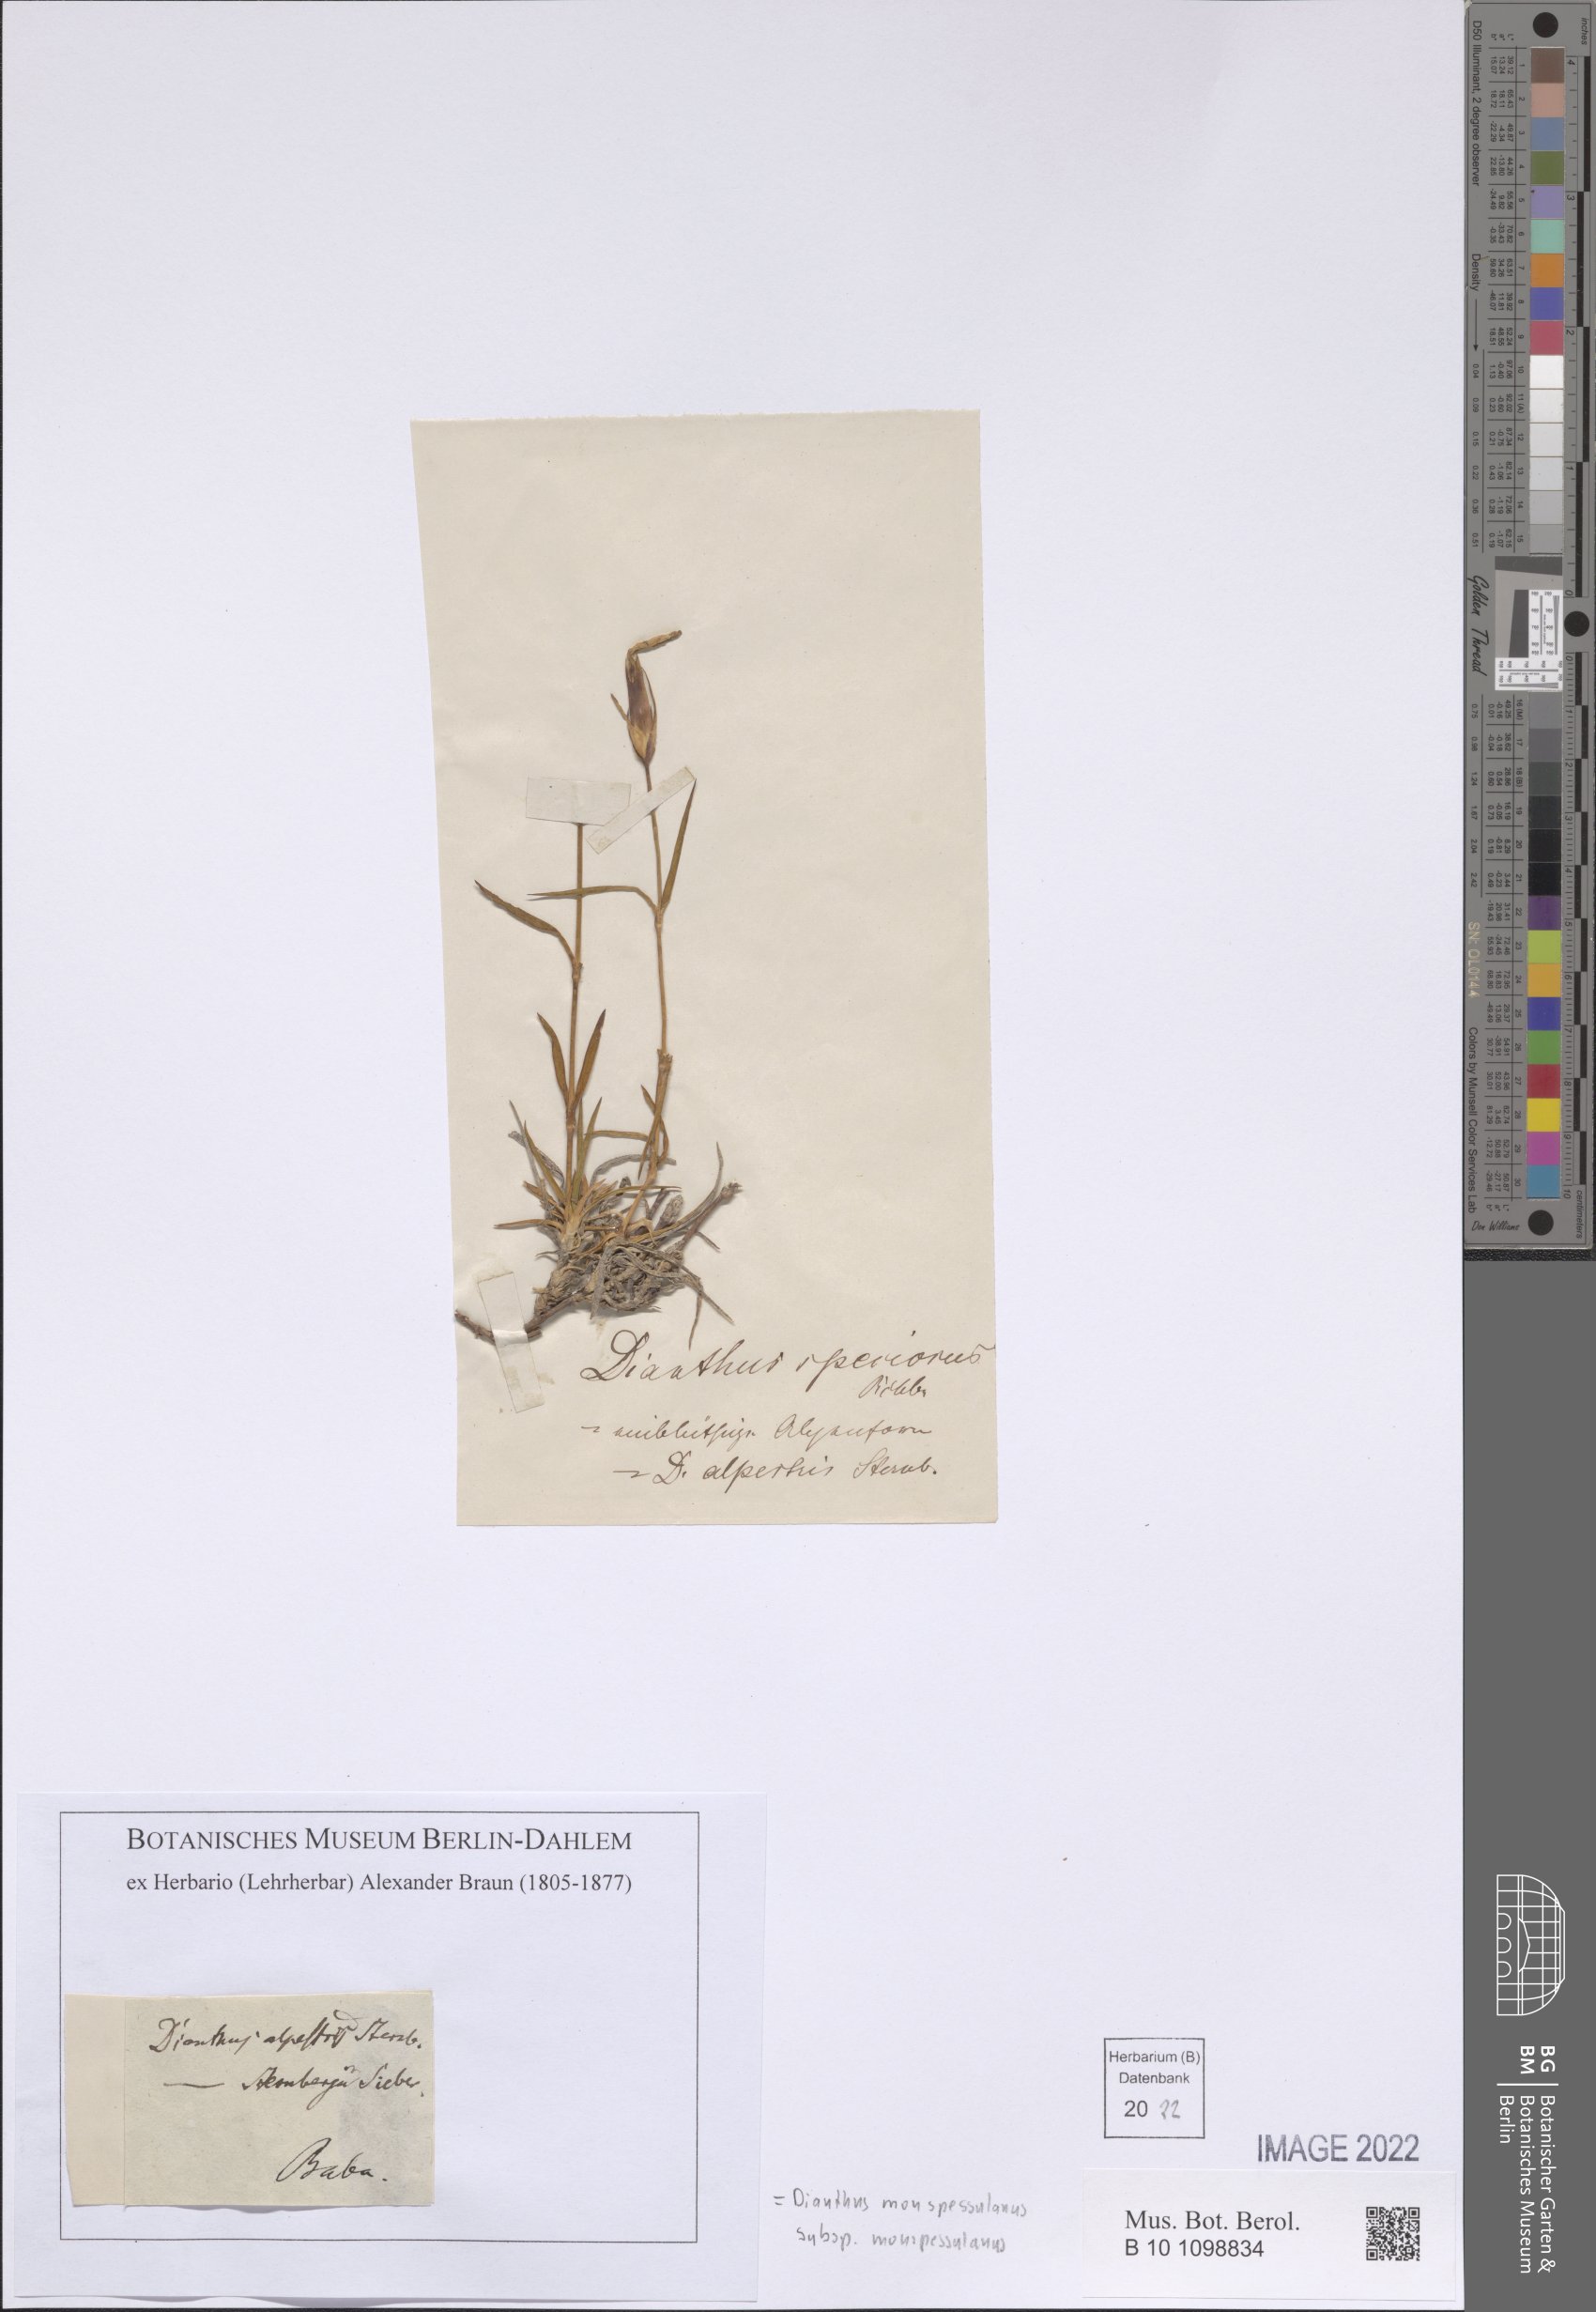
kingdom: Plantae
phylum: Tracheophyta
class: Magnoliopsida
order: Caryophyllales
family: Caryophyllaceae
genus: Dianthus
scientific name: Dianthus hyssopifolius
